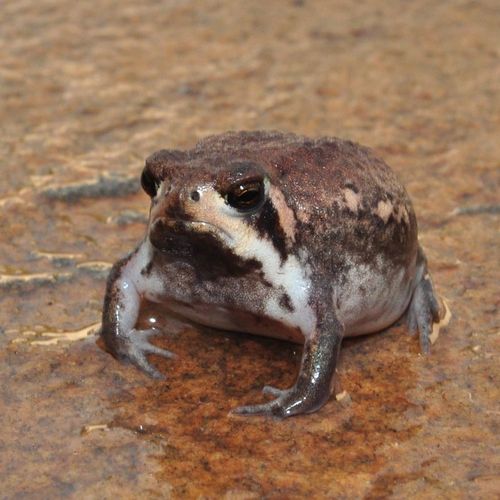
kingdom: Animalia
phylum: Chordata
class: Amphibia
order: Anura
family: Brevicipitidae
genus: Breviceps
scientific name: Breviceps poweri
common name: Power's rain frog
